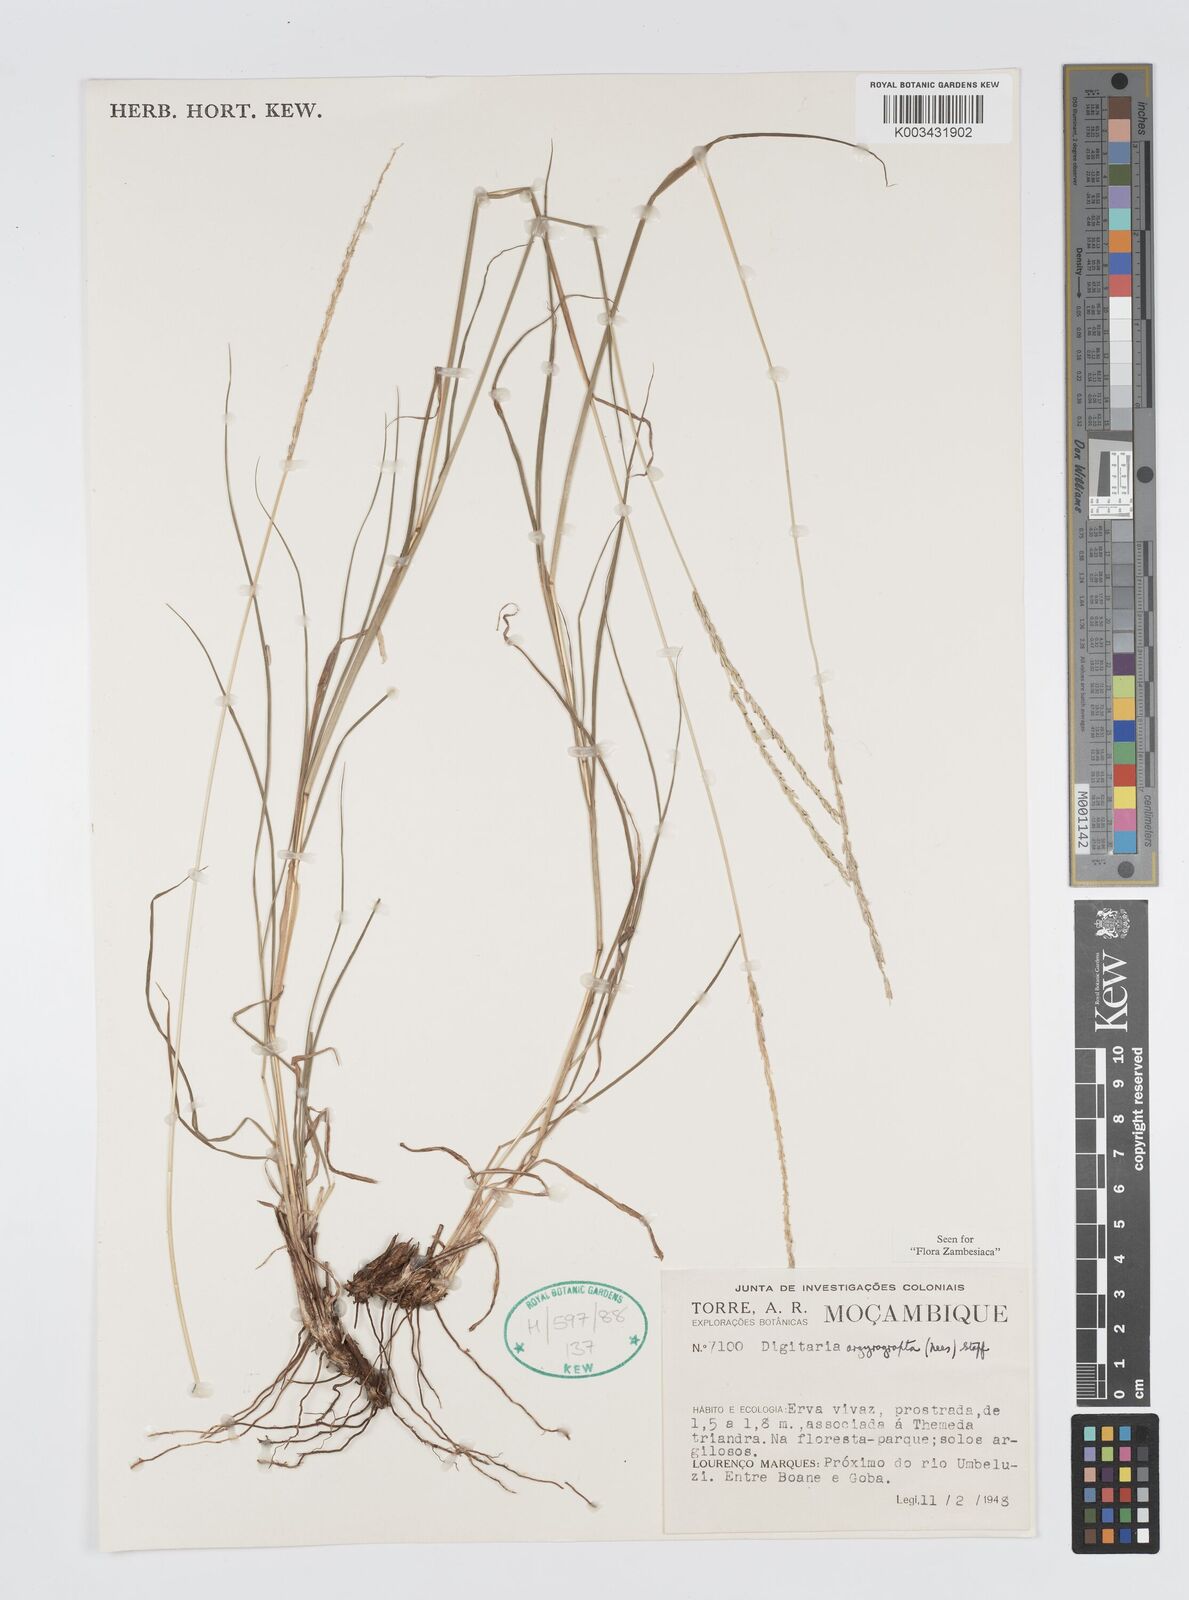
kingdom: Plantae
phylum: Tracheophyta
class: Liliopsida
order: Poales
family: Poaceae
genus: Digitaria
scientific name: Digitaria argyrograpta
